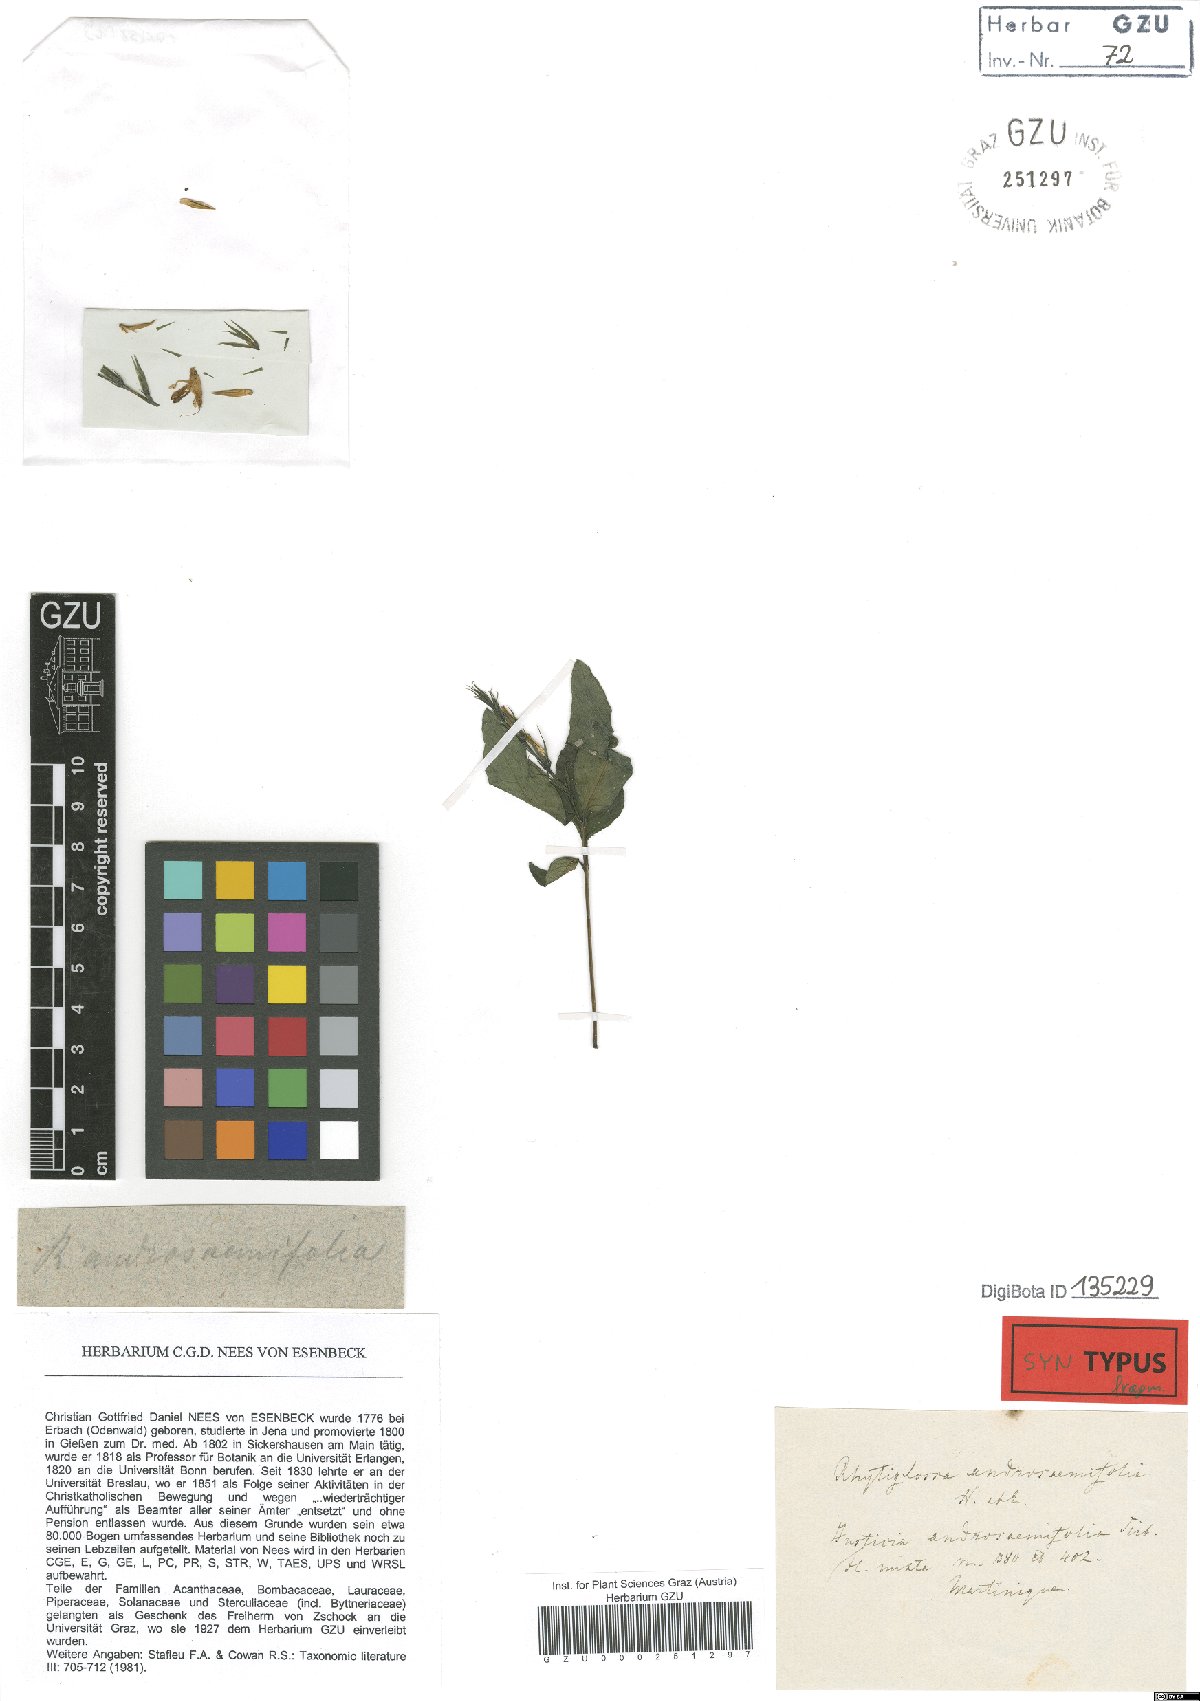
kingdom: Plantae
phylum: Tracheophyta
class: Magnoliopsida
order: Lamiales
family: Acanthaceae
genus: Dianthera
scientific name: Dianthera androsaemifolia
